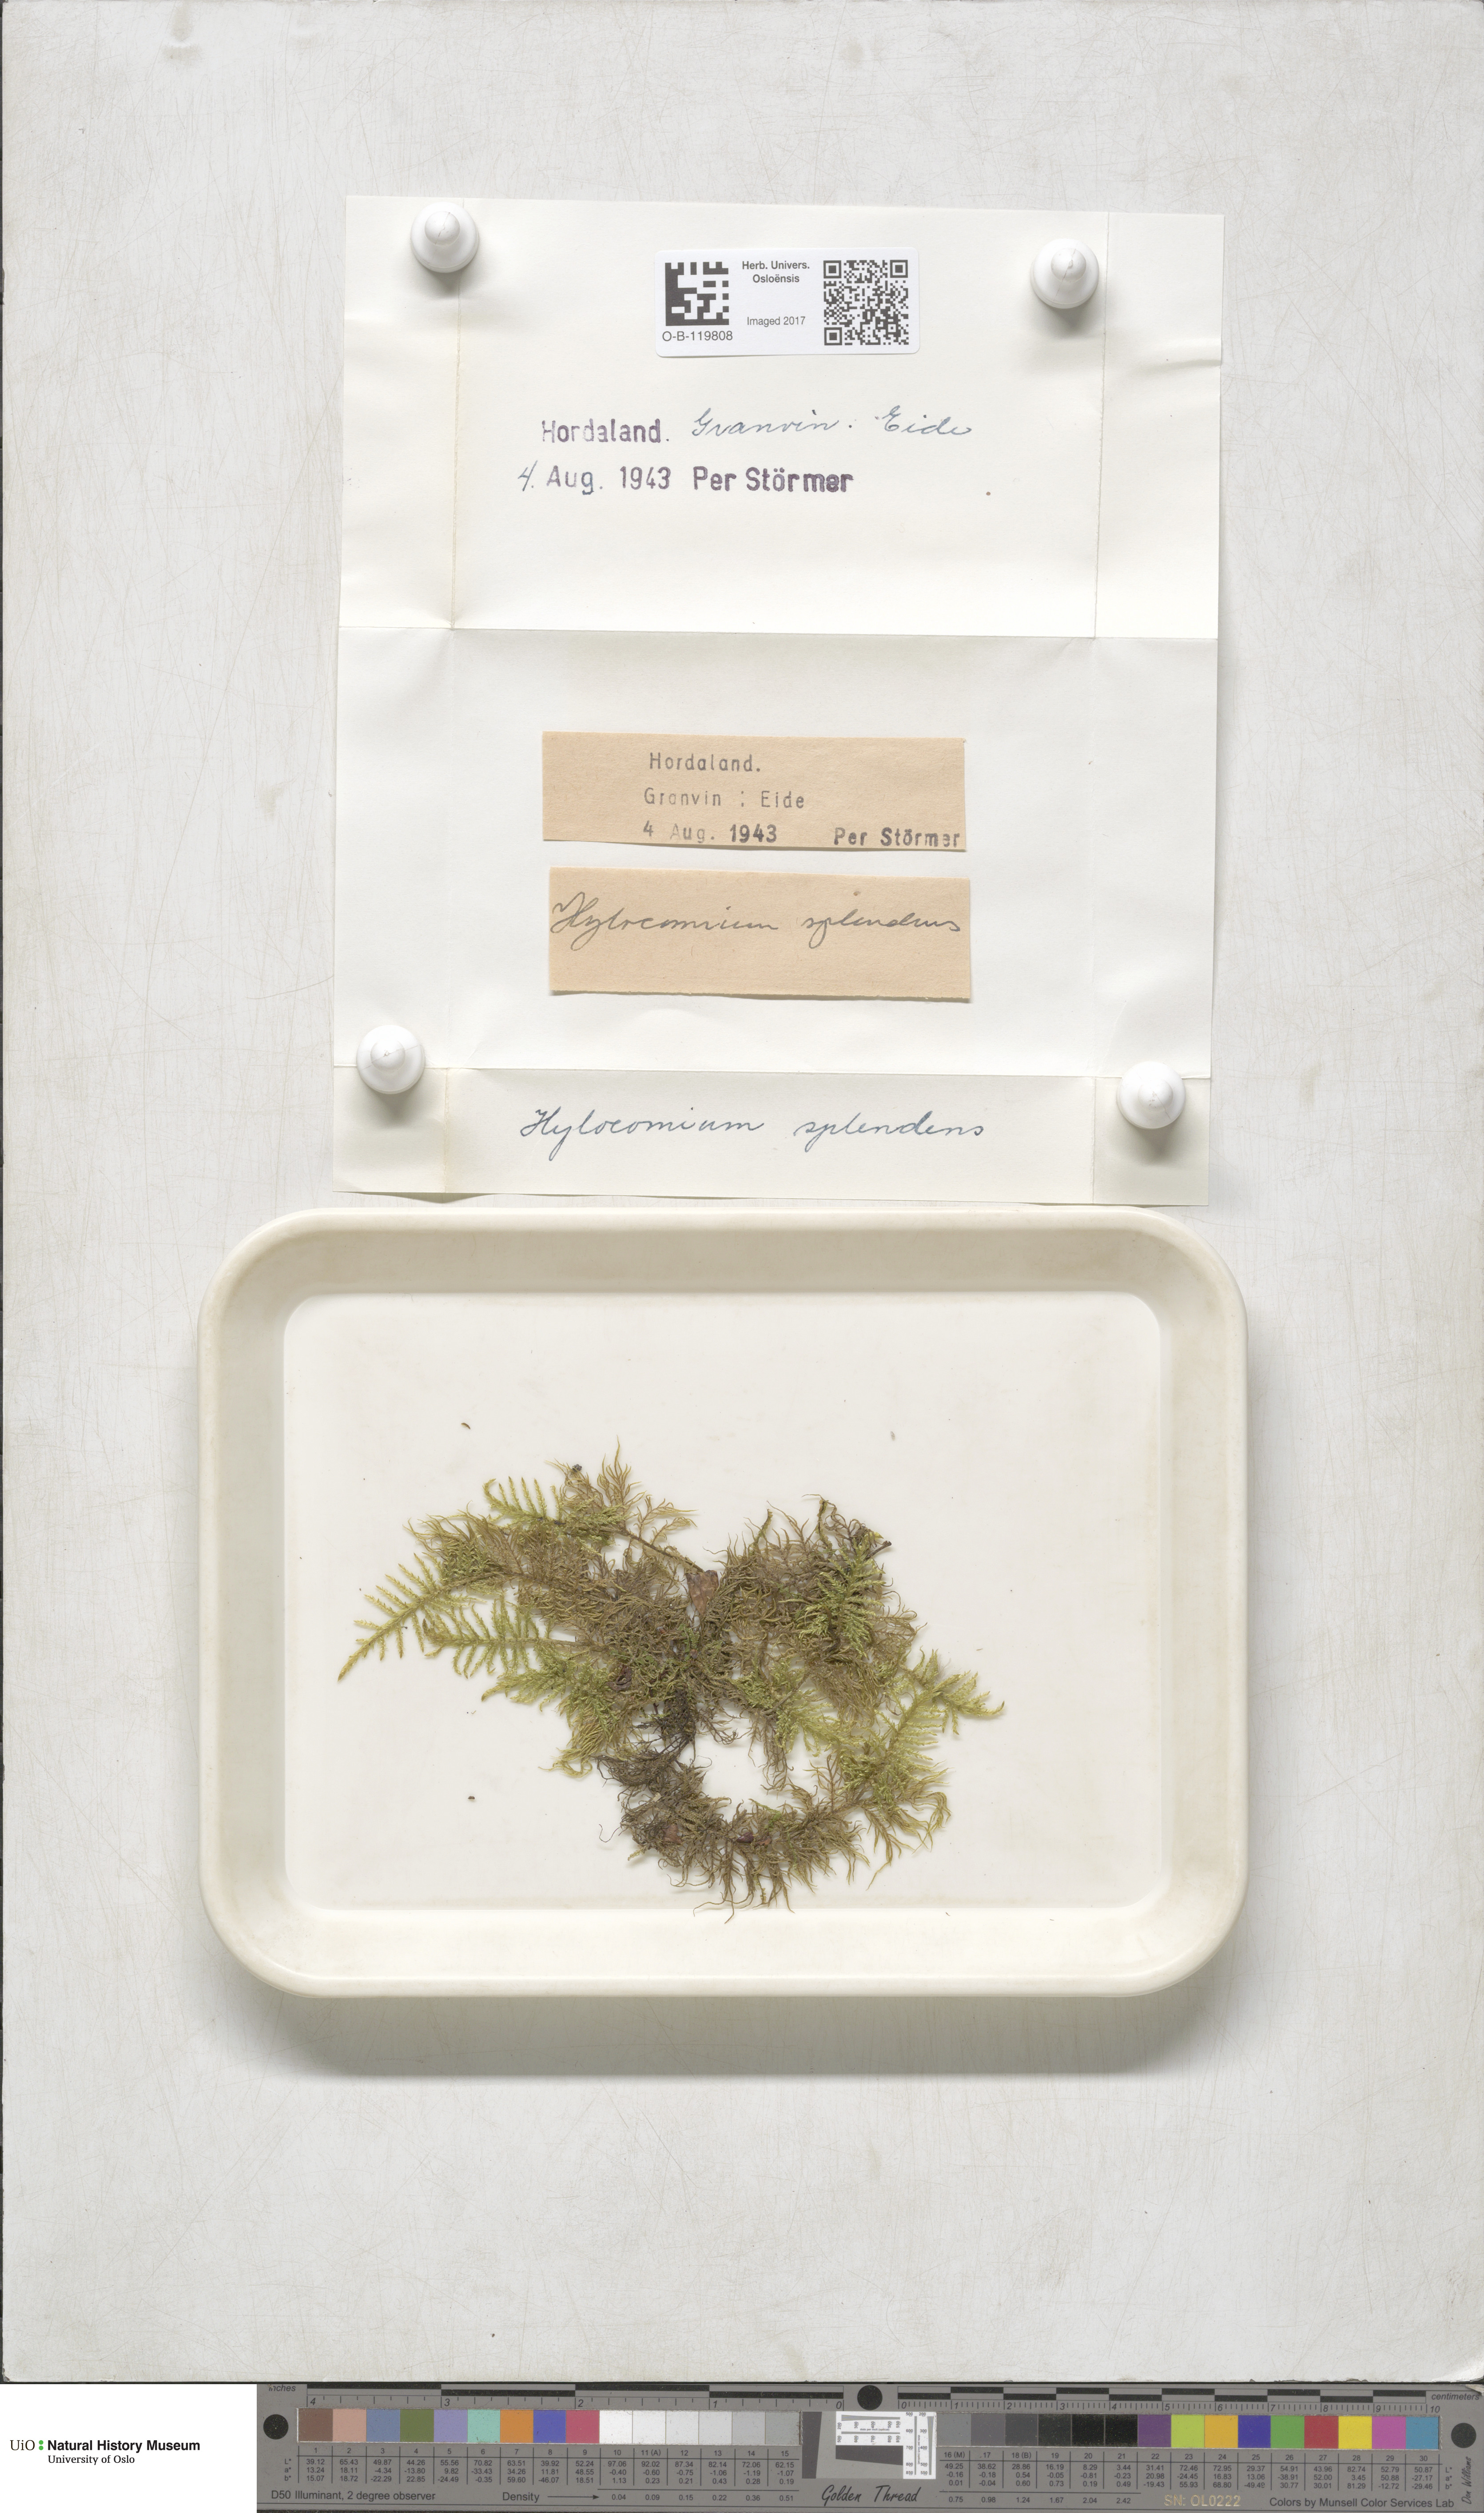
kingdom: Plantae
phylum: Bryophyta
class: Bryopsida
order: Hypnales
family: Hylocomiaceae
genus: Hylocomium
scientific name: Hylocomium splendens
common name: Stairstep moss
